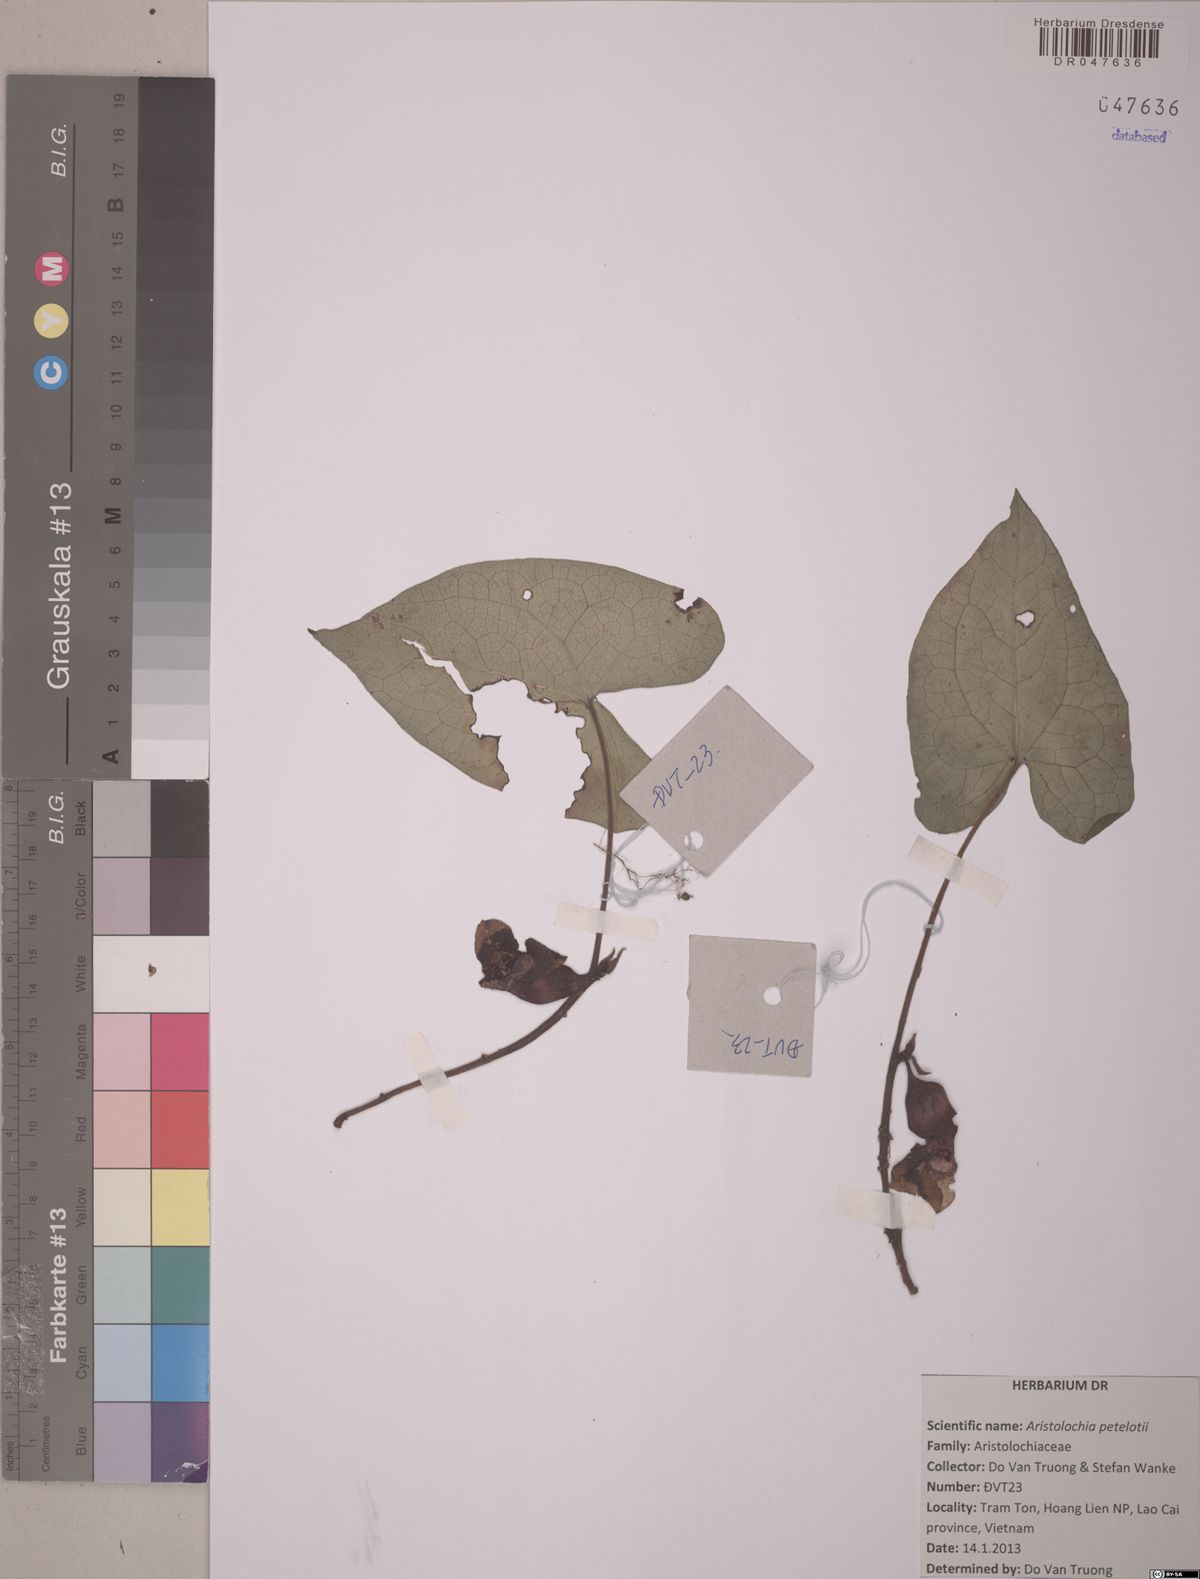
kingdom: Plantae
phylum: Tracheophyta
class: Magnoliopsida
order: Piperales
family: Aristolochiaceae
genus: Isotrema
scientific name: Isotrema petelotii
